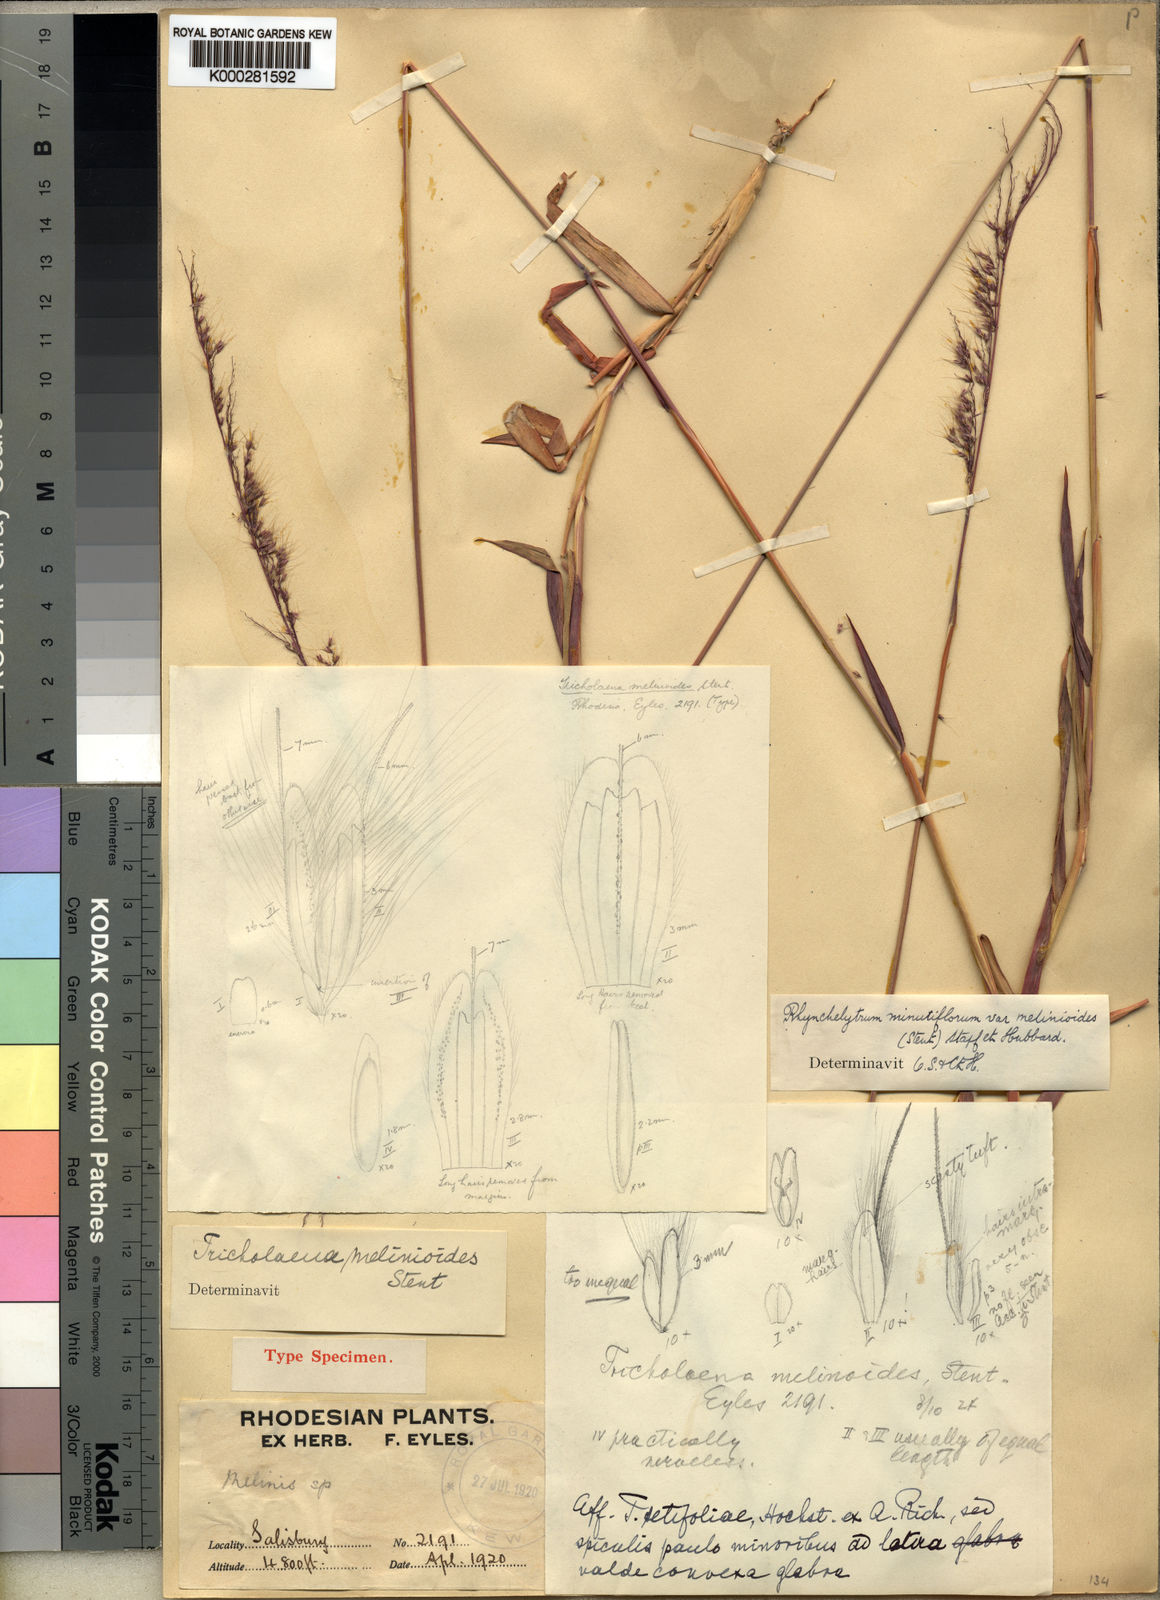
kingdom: Plantae
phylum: Tracheophyta
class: Liliopsida
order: Poales
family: Poaceae
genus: Melinis
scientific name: Melinis longiseta
